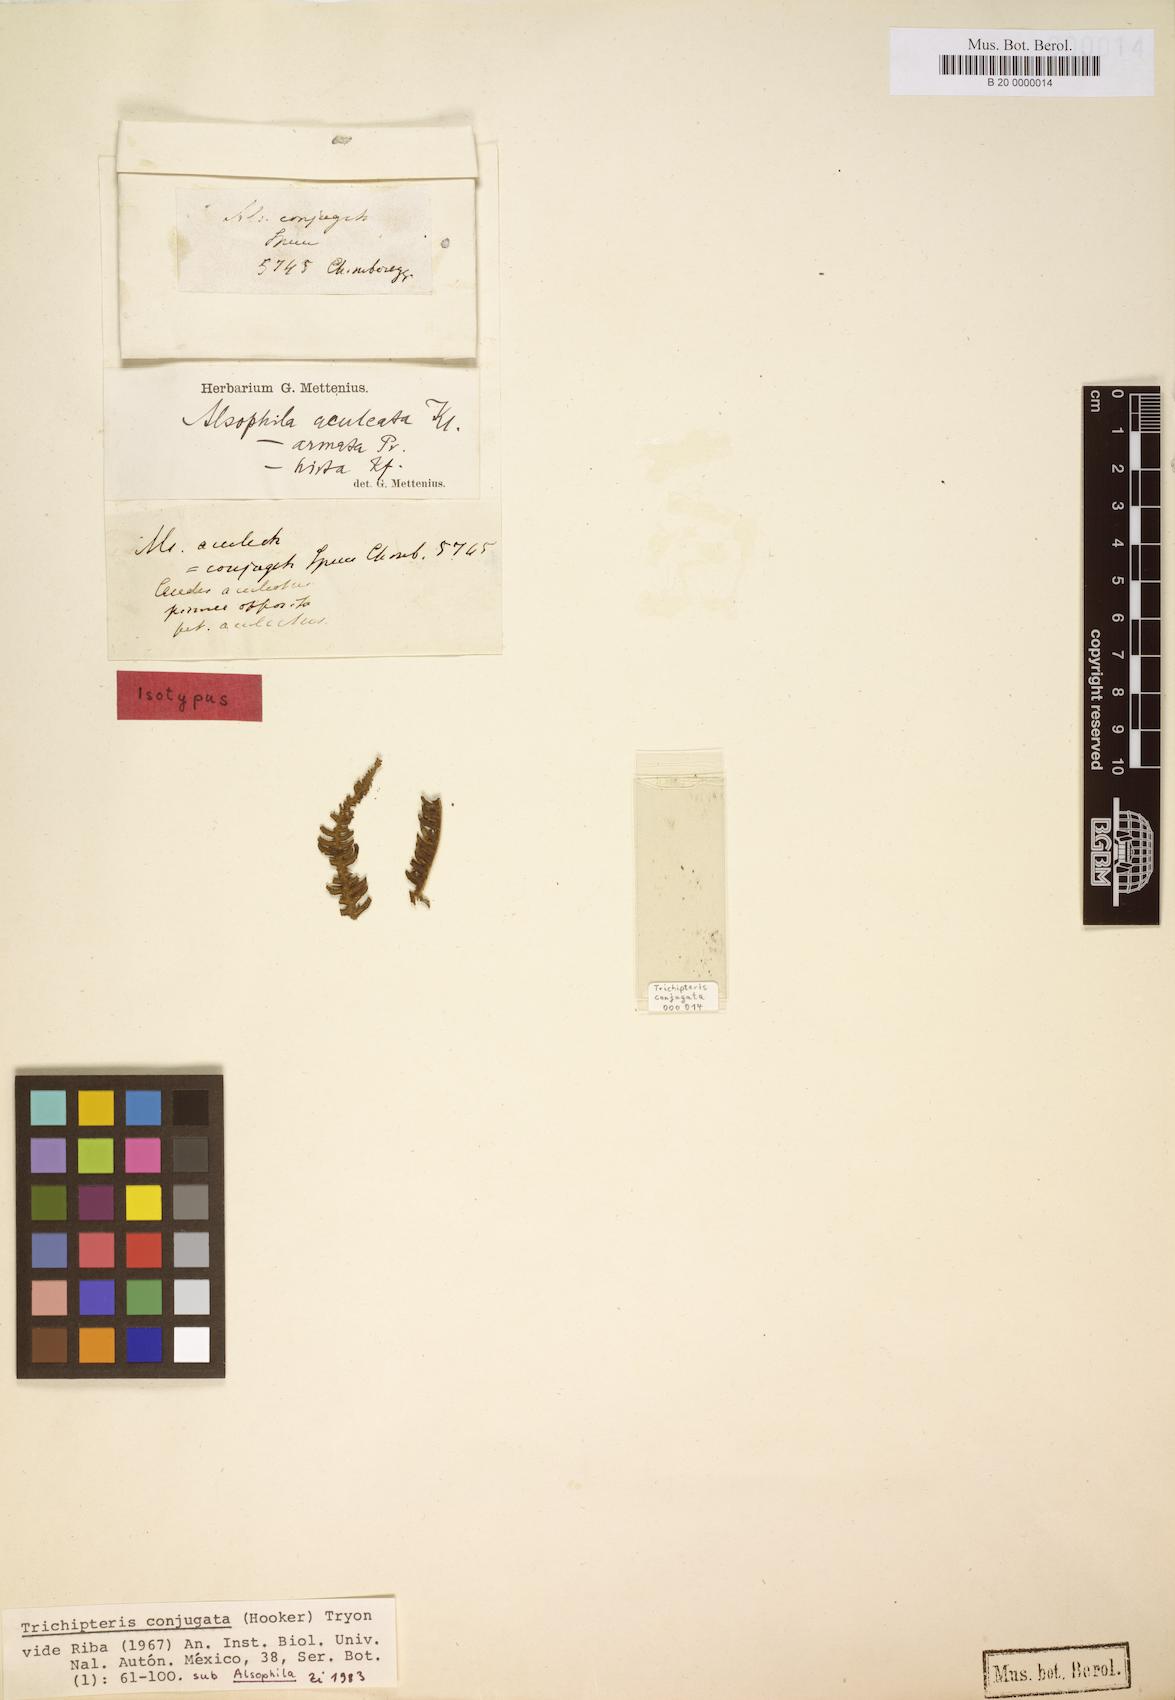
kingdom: Plantae
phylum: Tracheophyta
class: Polypodiopsida
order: Cyatheales
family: Cyatheaceae
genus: Cyathea
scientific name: Cyathea conjugata
